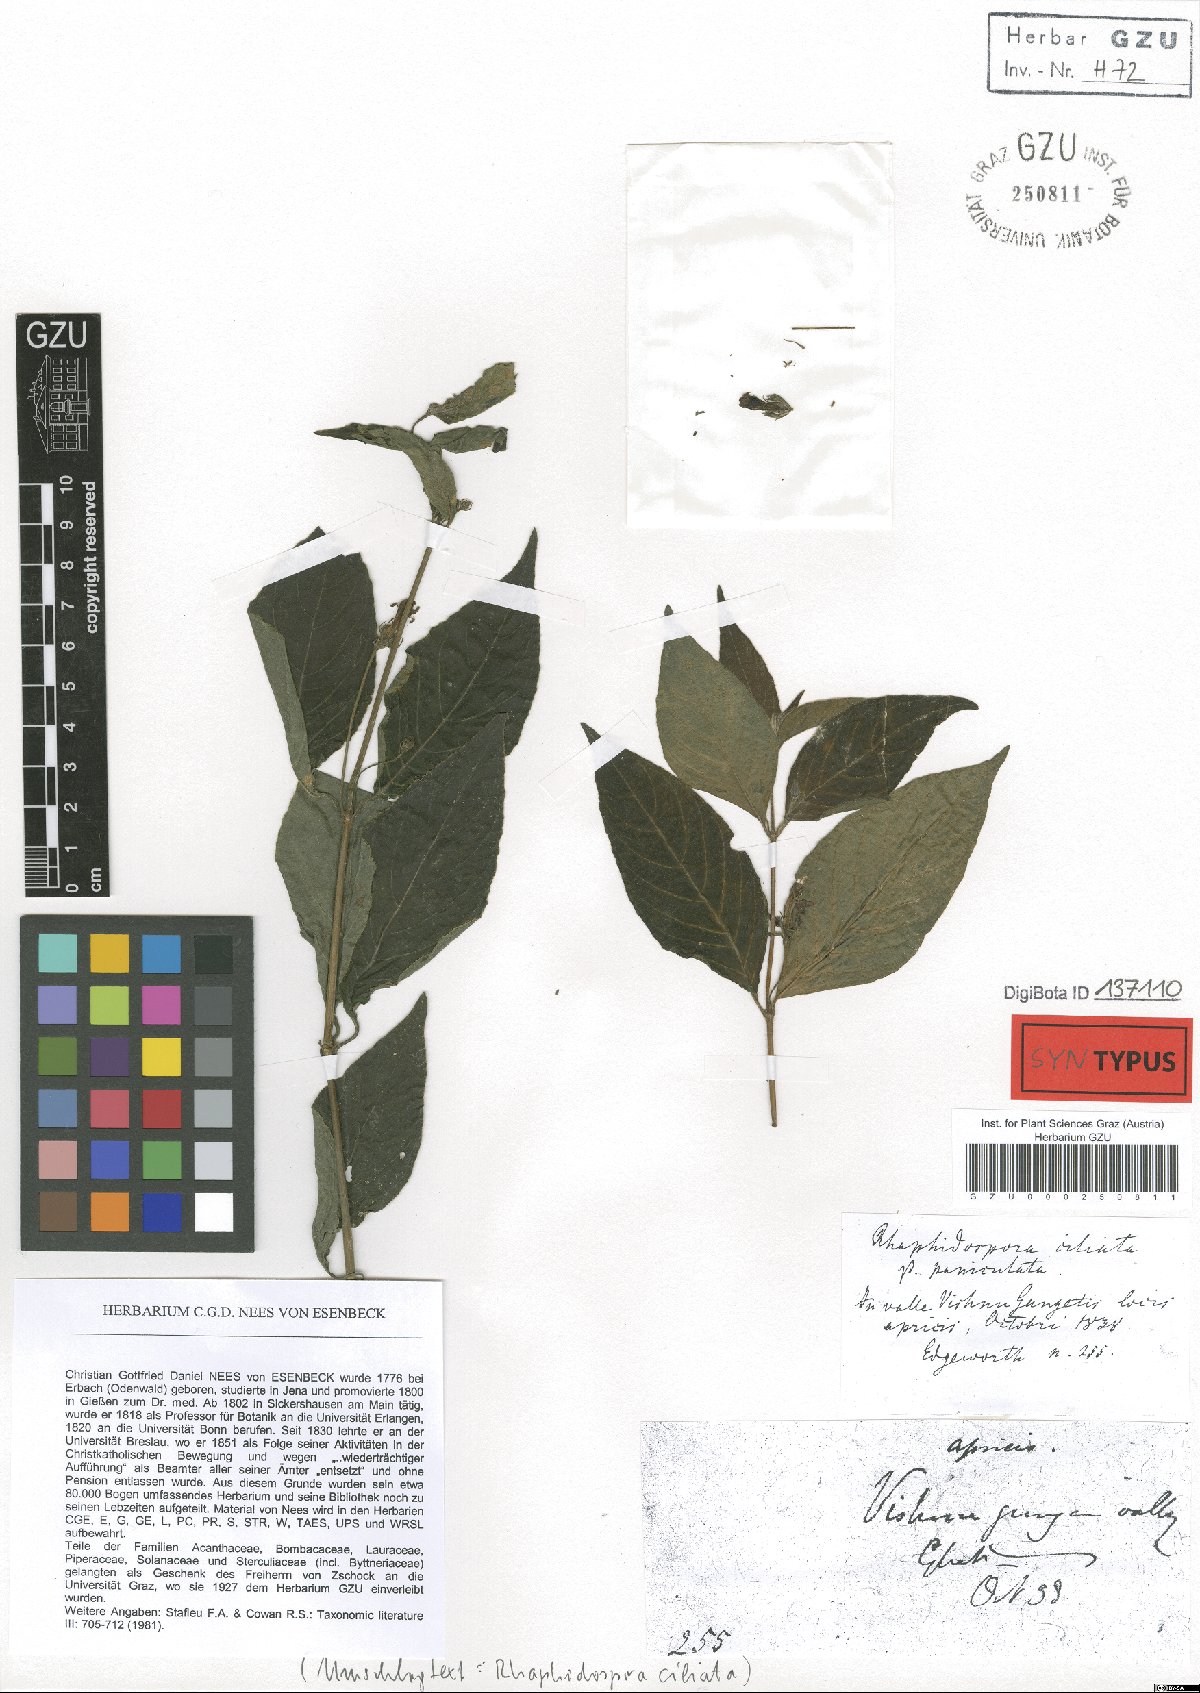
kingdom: Plantae
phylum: Tracheophyta
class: Magnoliopsida
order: Lamiales
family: Acanthaceae
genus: Justicia
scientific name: Justicia pubigera
